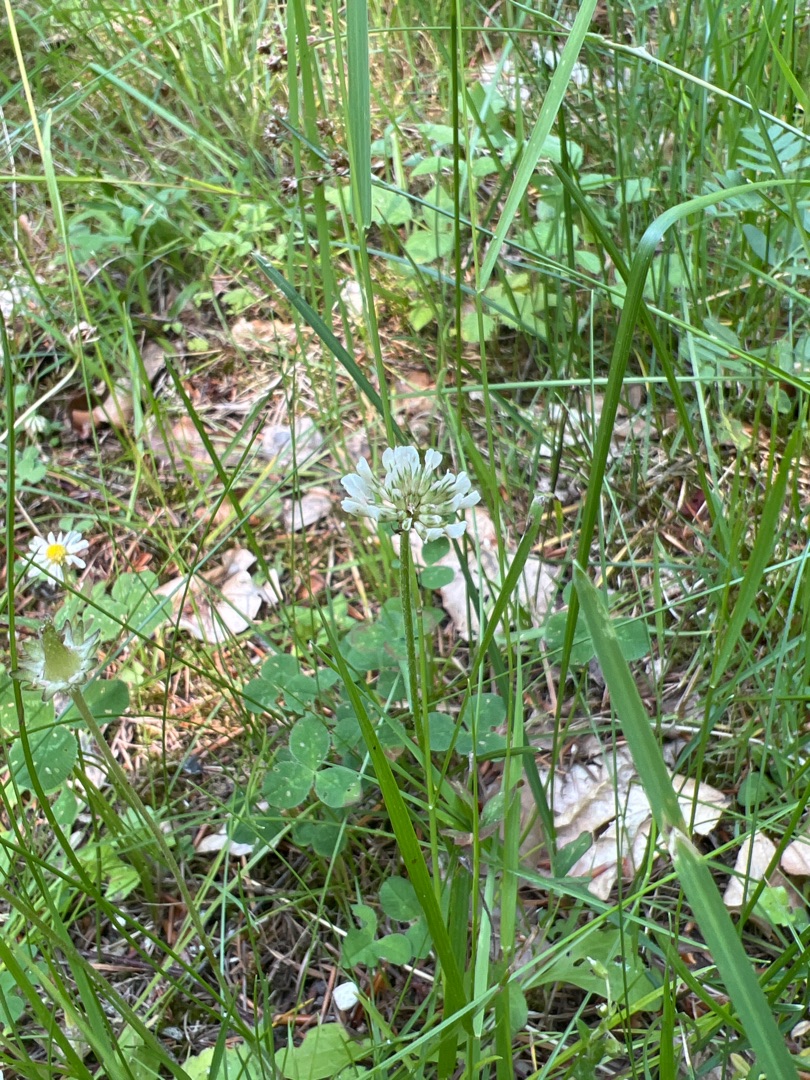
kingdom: Plantae
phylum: Tracheophyta
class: Magnoliopsida
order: Fabales
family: Fabaceae
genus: Trifolium
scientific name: Trifolium repens
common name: Hvid-kløver
